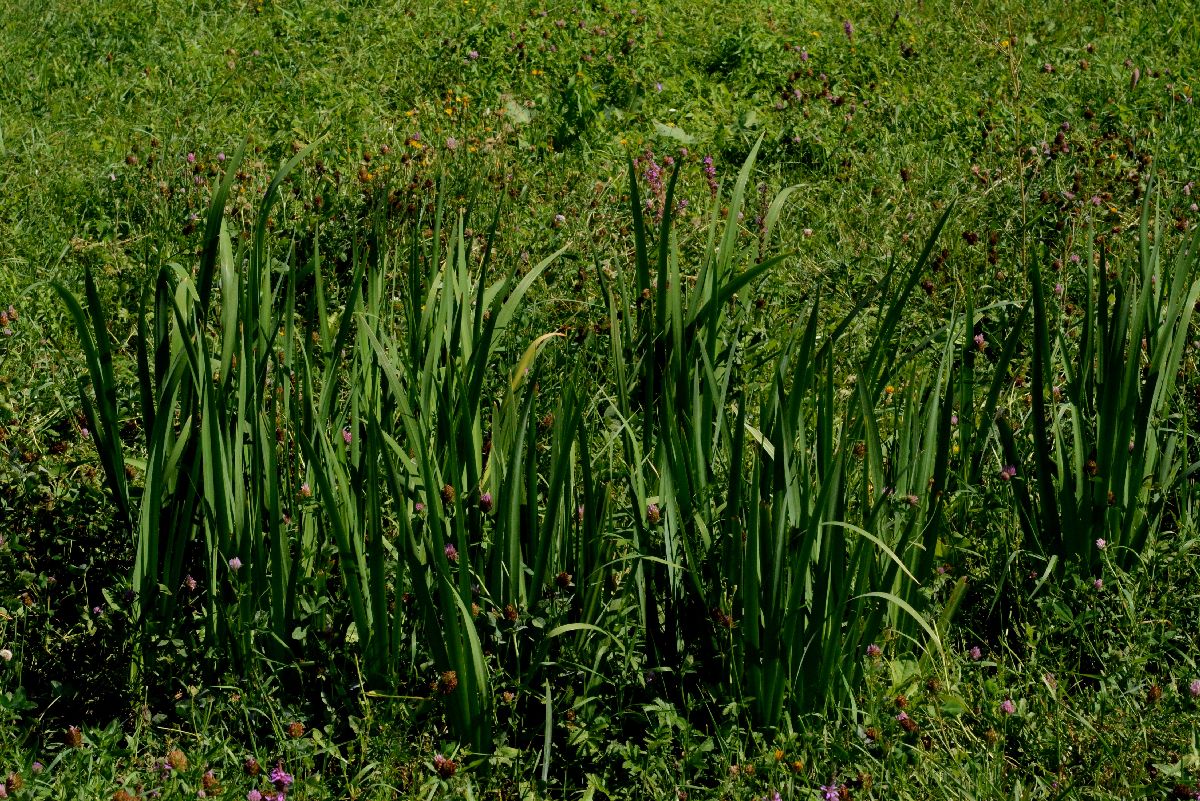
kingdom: Plantae
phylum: Tracheophyta
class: Liliopsida
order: Asparagales
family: Iridaceae
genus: Iris
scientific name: Iris pseudacorus
